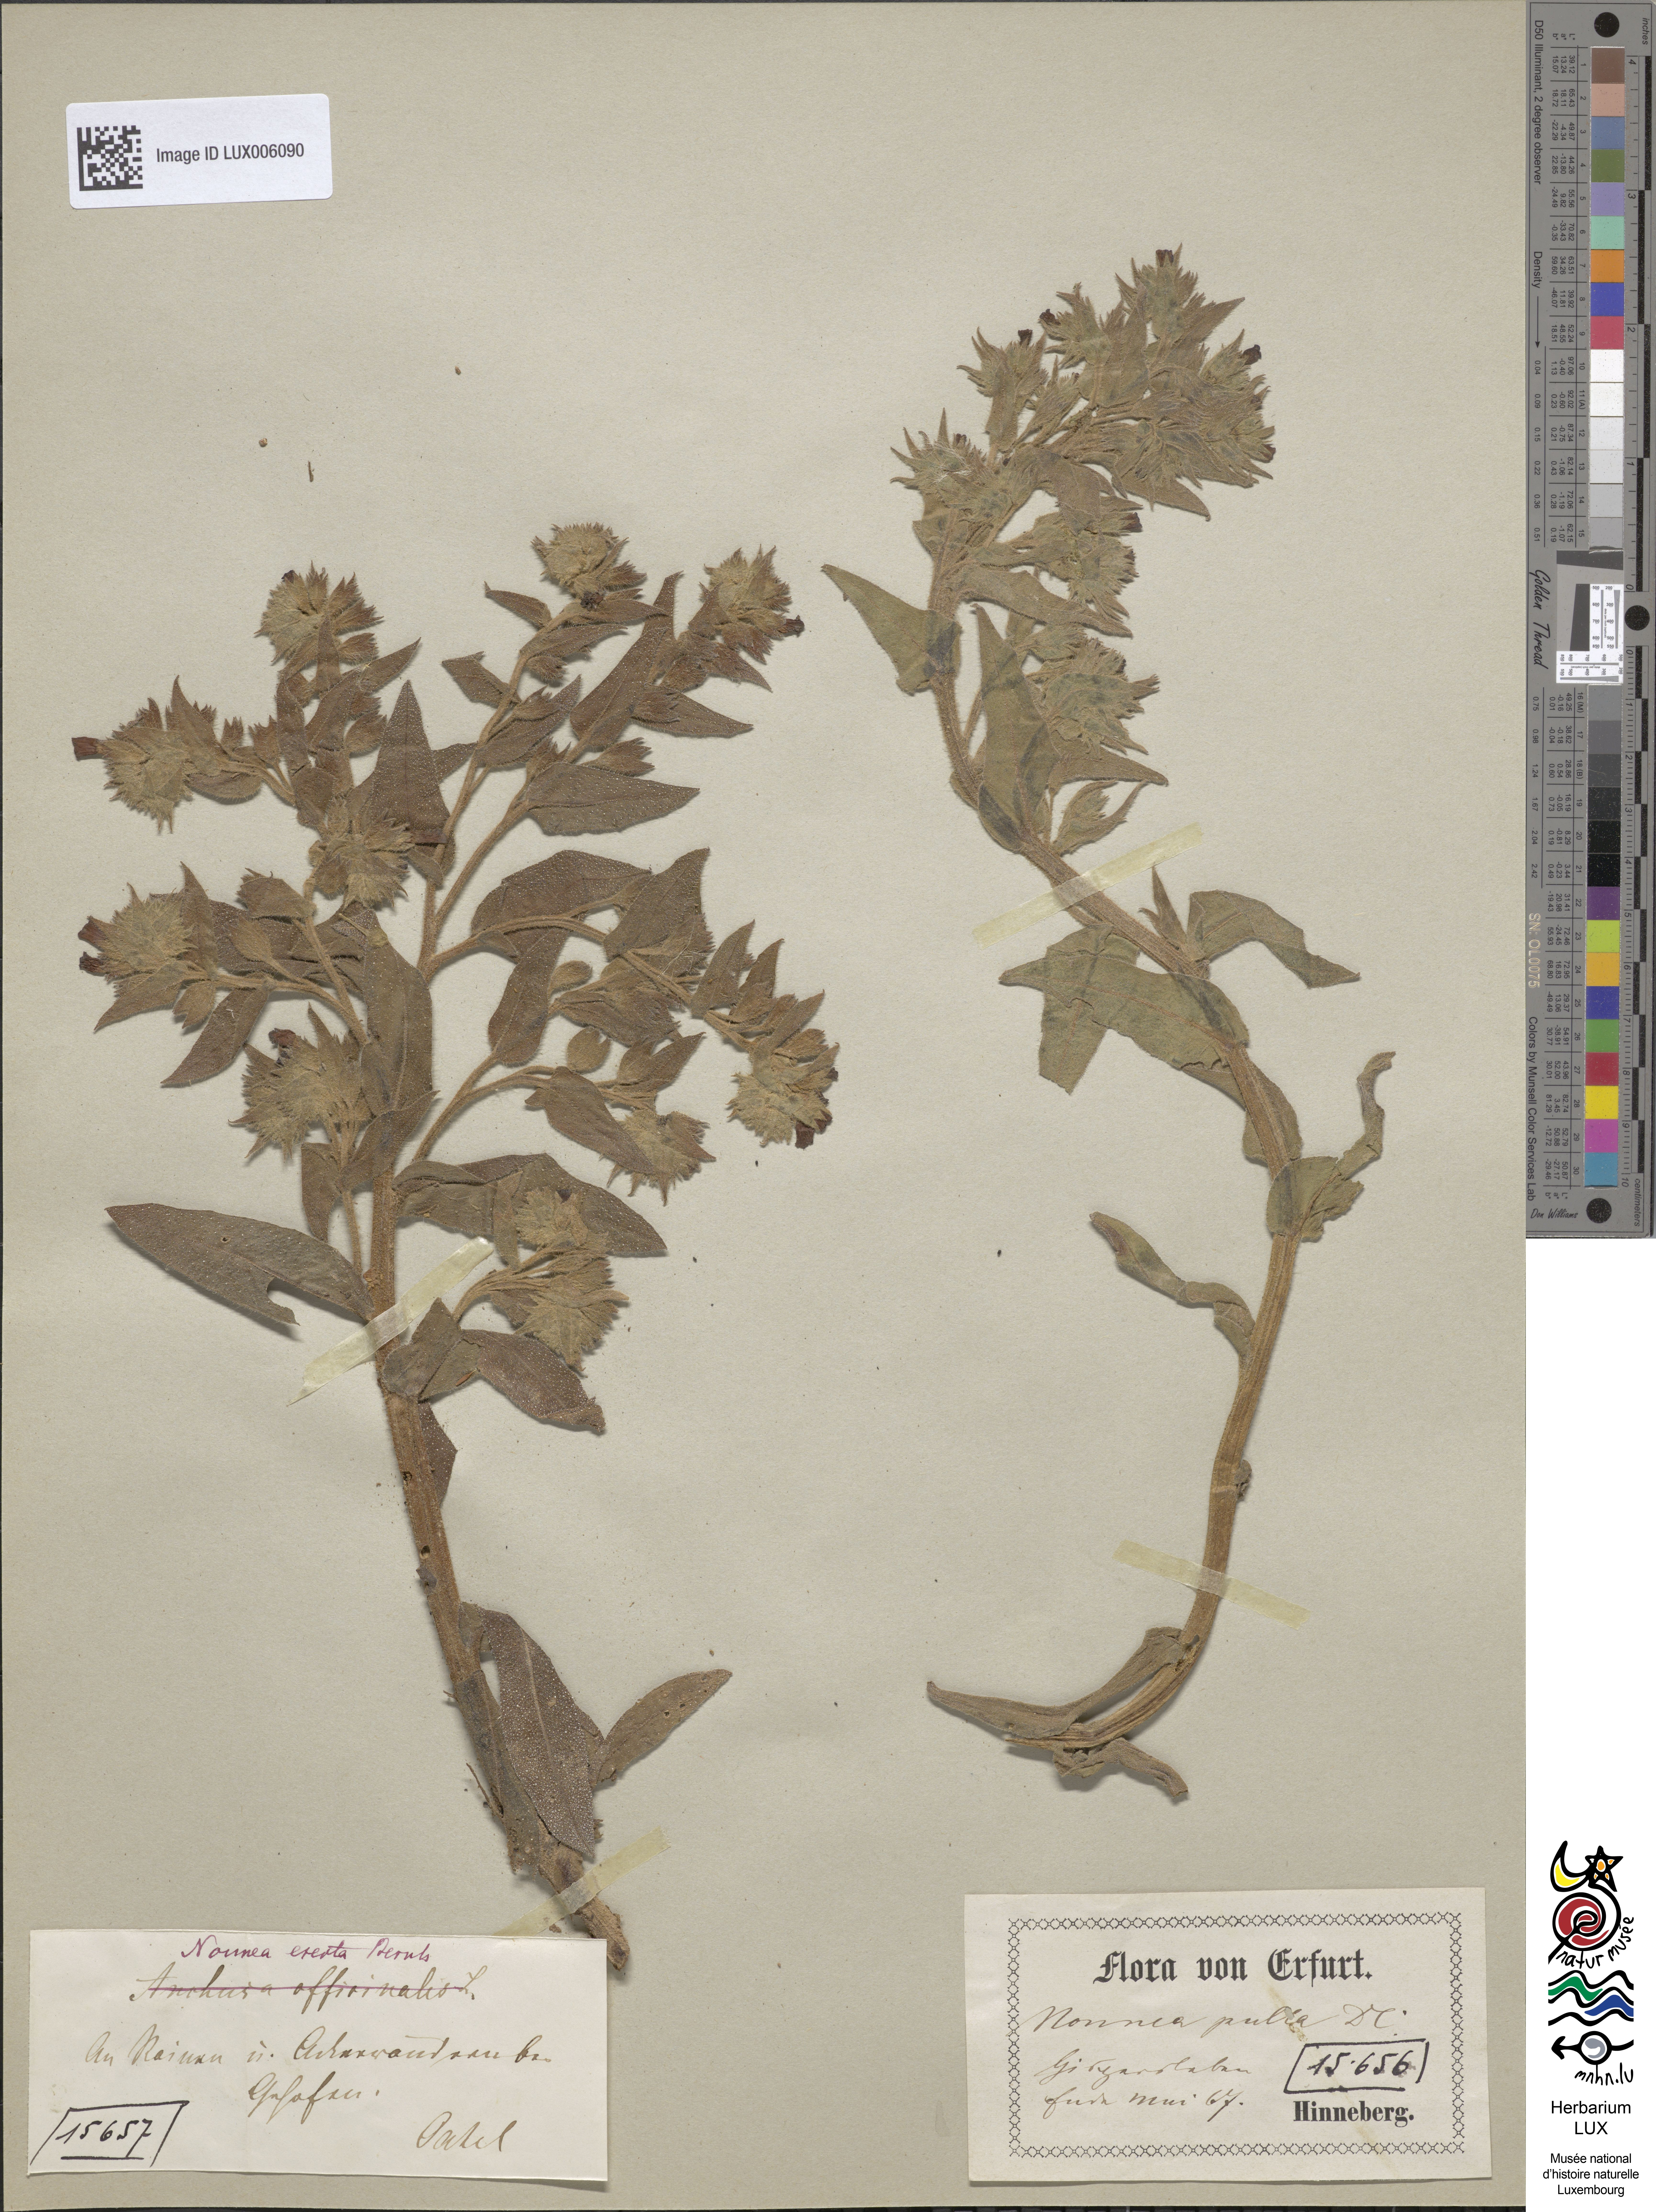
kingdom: Plantae
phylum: Tracheophyta
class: Magnoliopsida
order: Boraginales
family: Boraginaceae
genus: Nonea
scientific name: Nonea pulla
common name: Brown nonea
